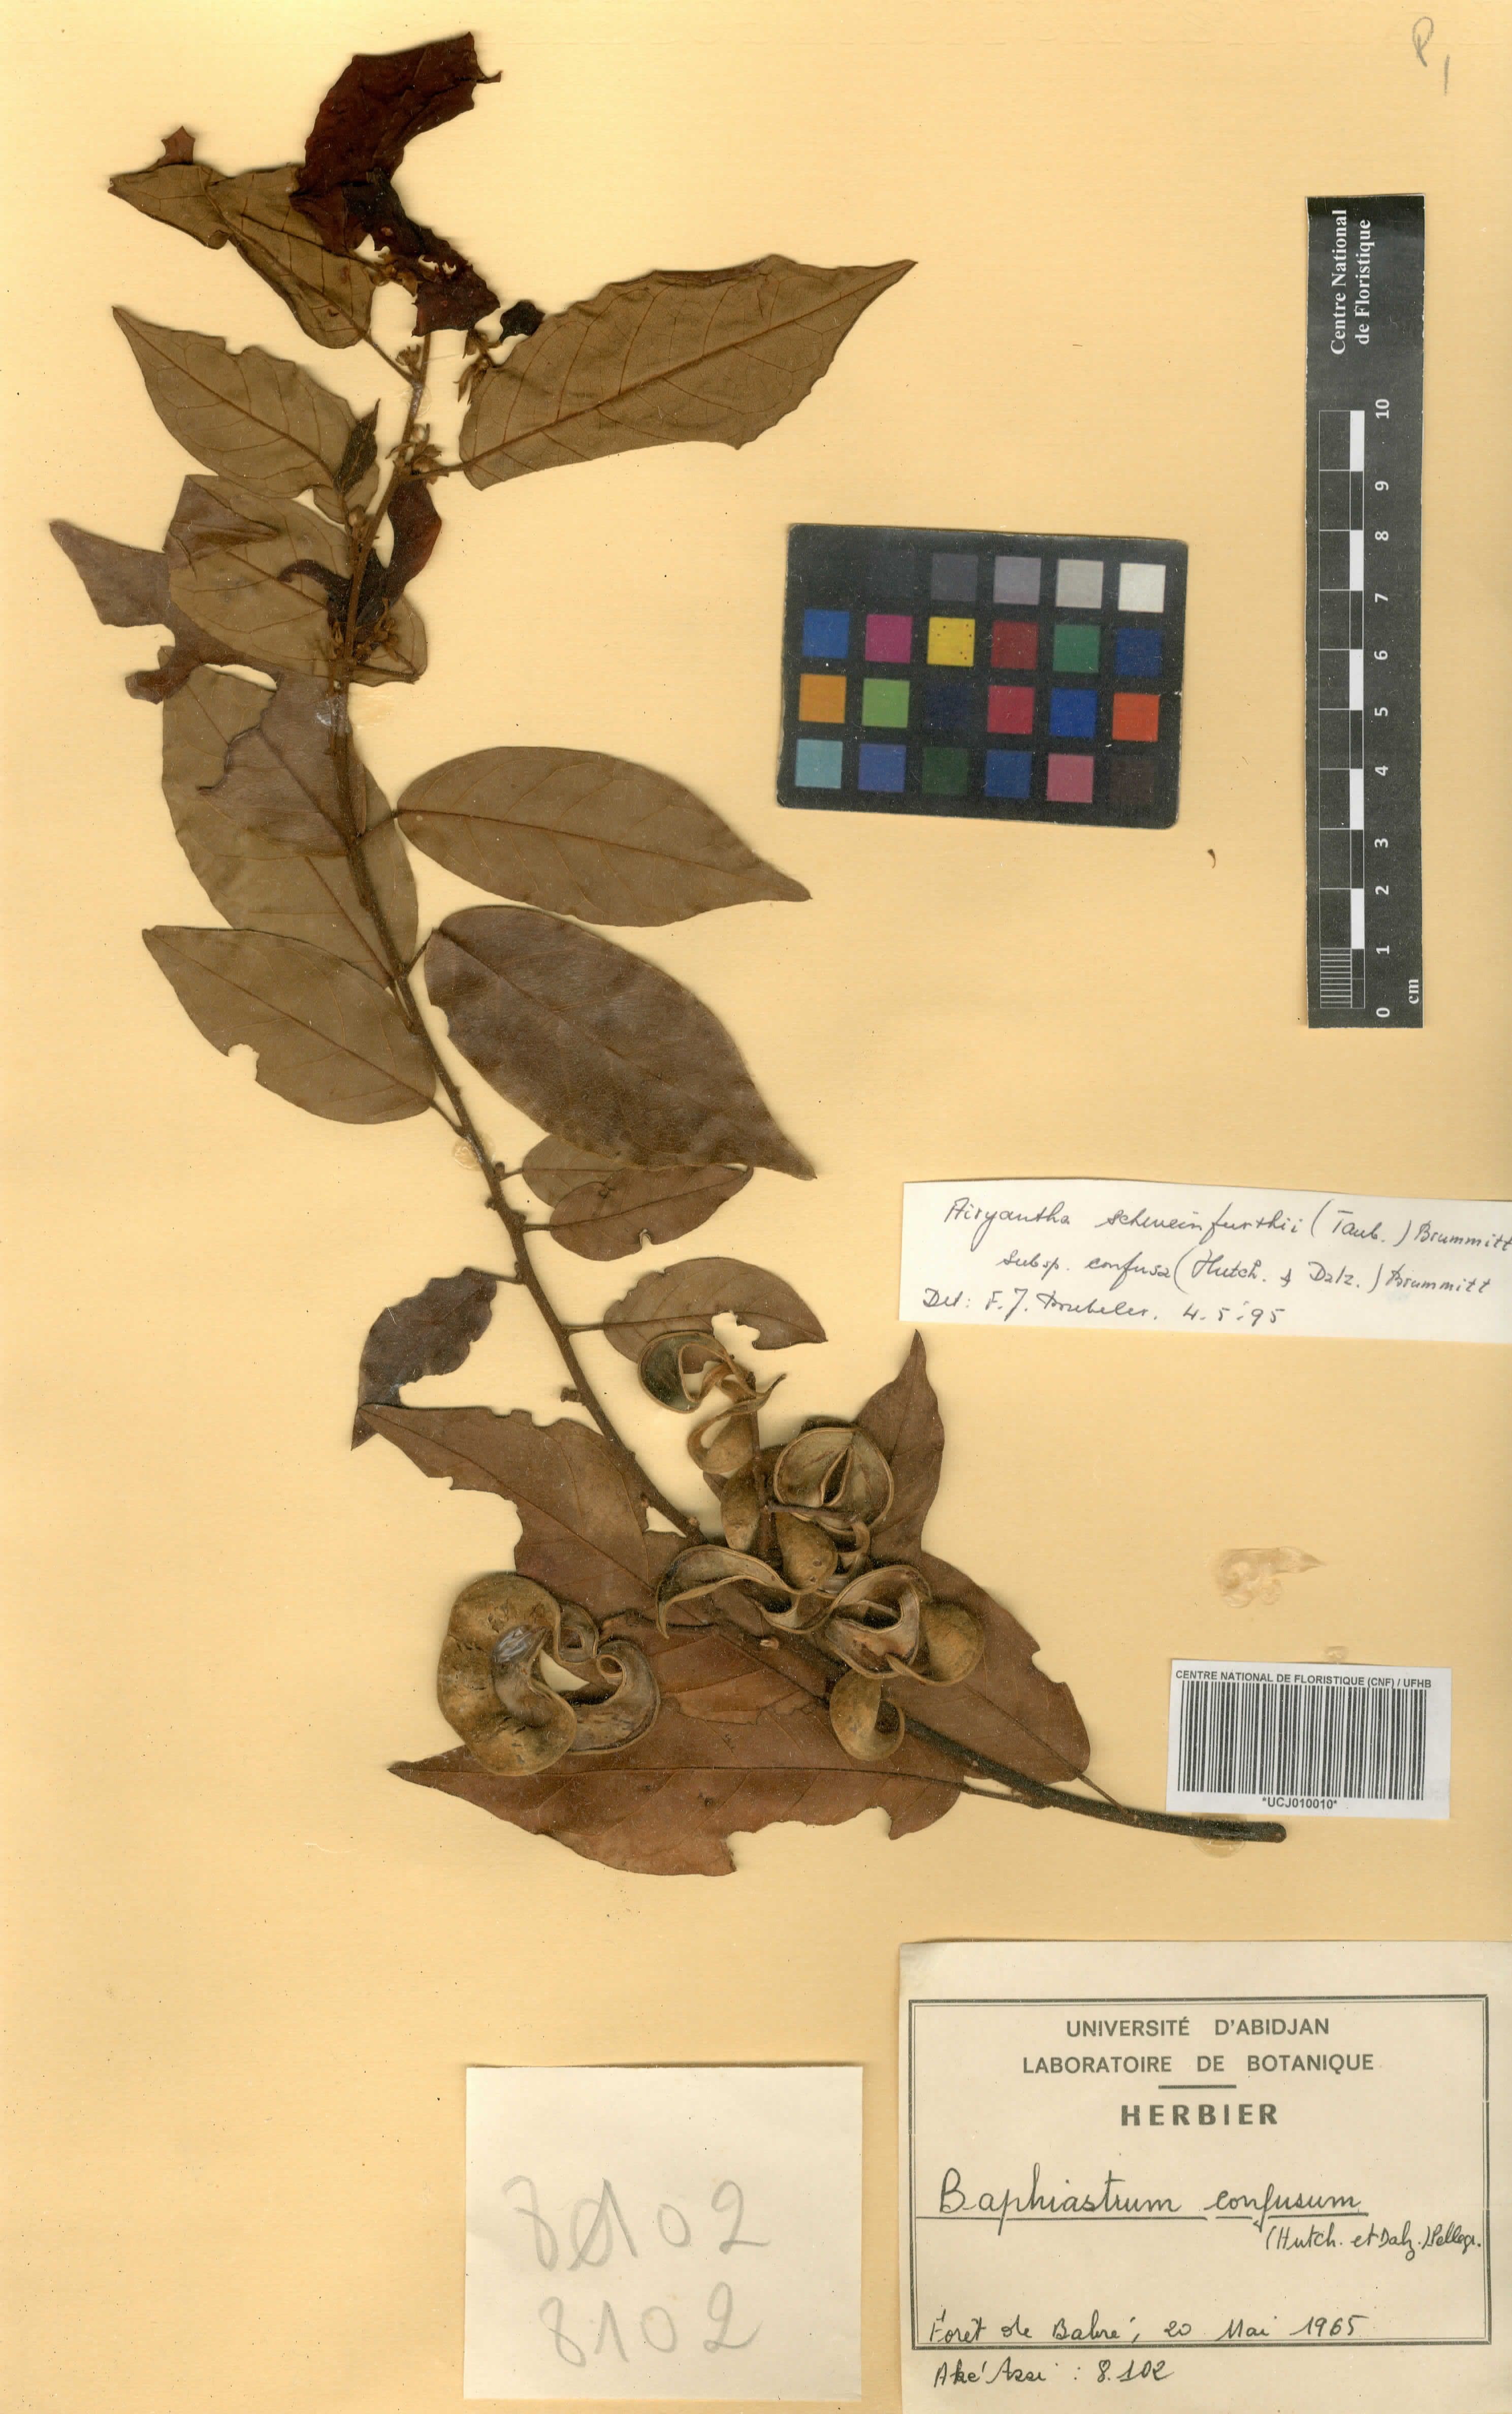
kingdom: Plantae
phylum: Tracheophyta
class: Magnoliopsida
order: Fabales
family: Fabaceae
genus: Airyantha
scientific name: Airyantha schweinfurthii
